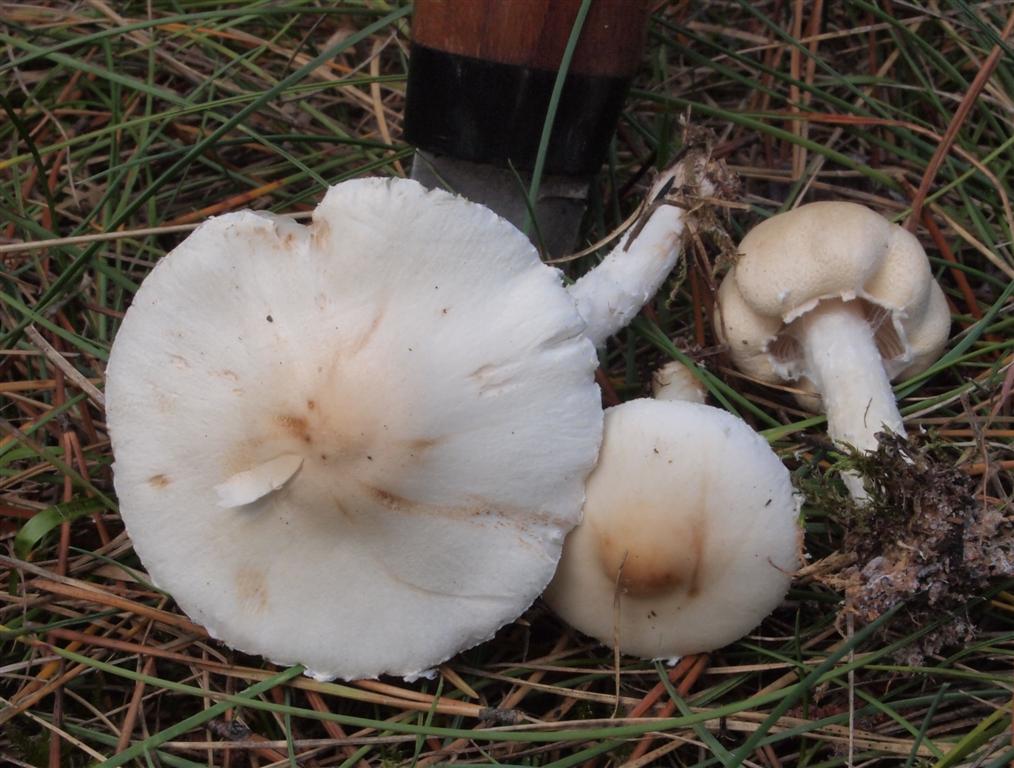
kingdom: Fungi
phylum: Basidiomycota
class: Agaricomycetes
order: Agaricales
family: Agaricaceae
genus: Lepiota
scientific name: Lepiota erminea
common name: hvid parasolhat
